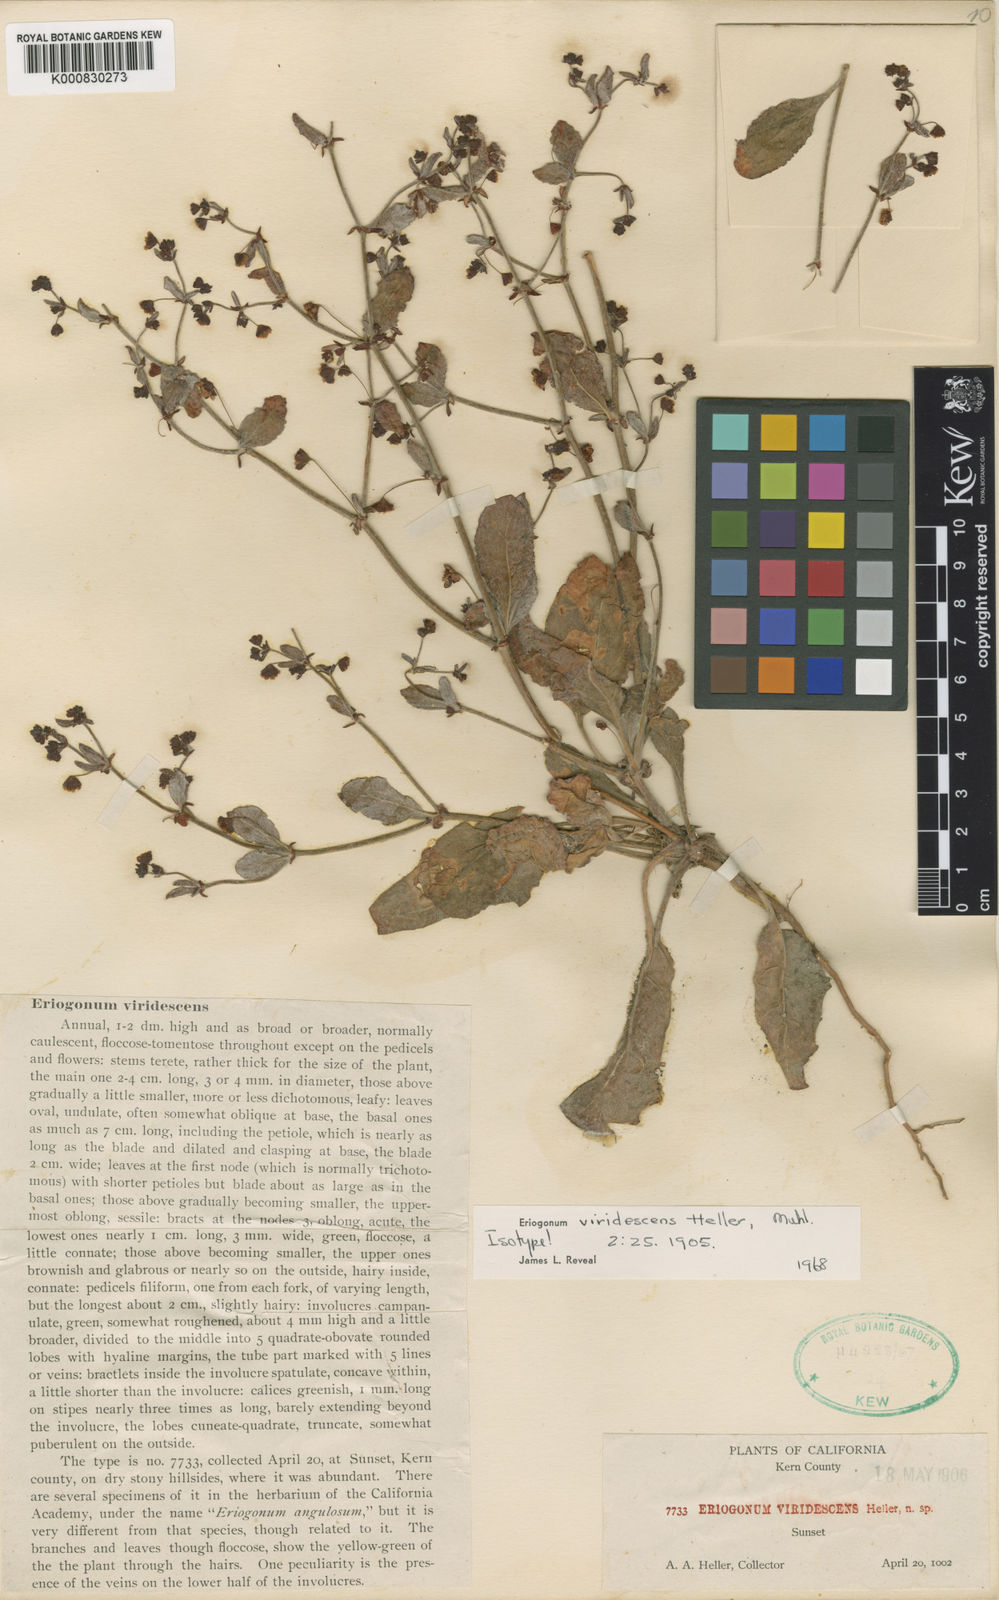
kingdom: Plantae
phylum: Tracheophyta
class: Magnoliopsida
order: Caryophyllales
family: Polygonaceae
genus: Eriogonum
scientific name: Eriogonum viridescens
